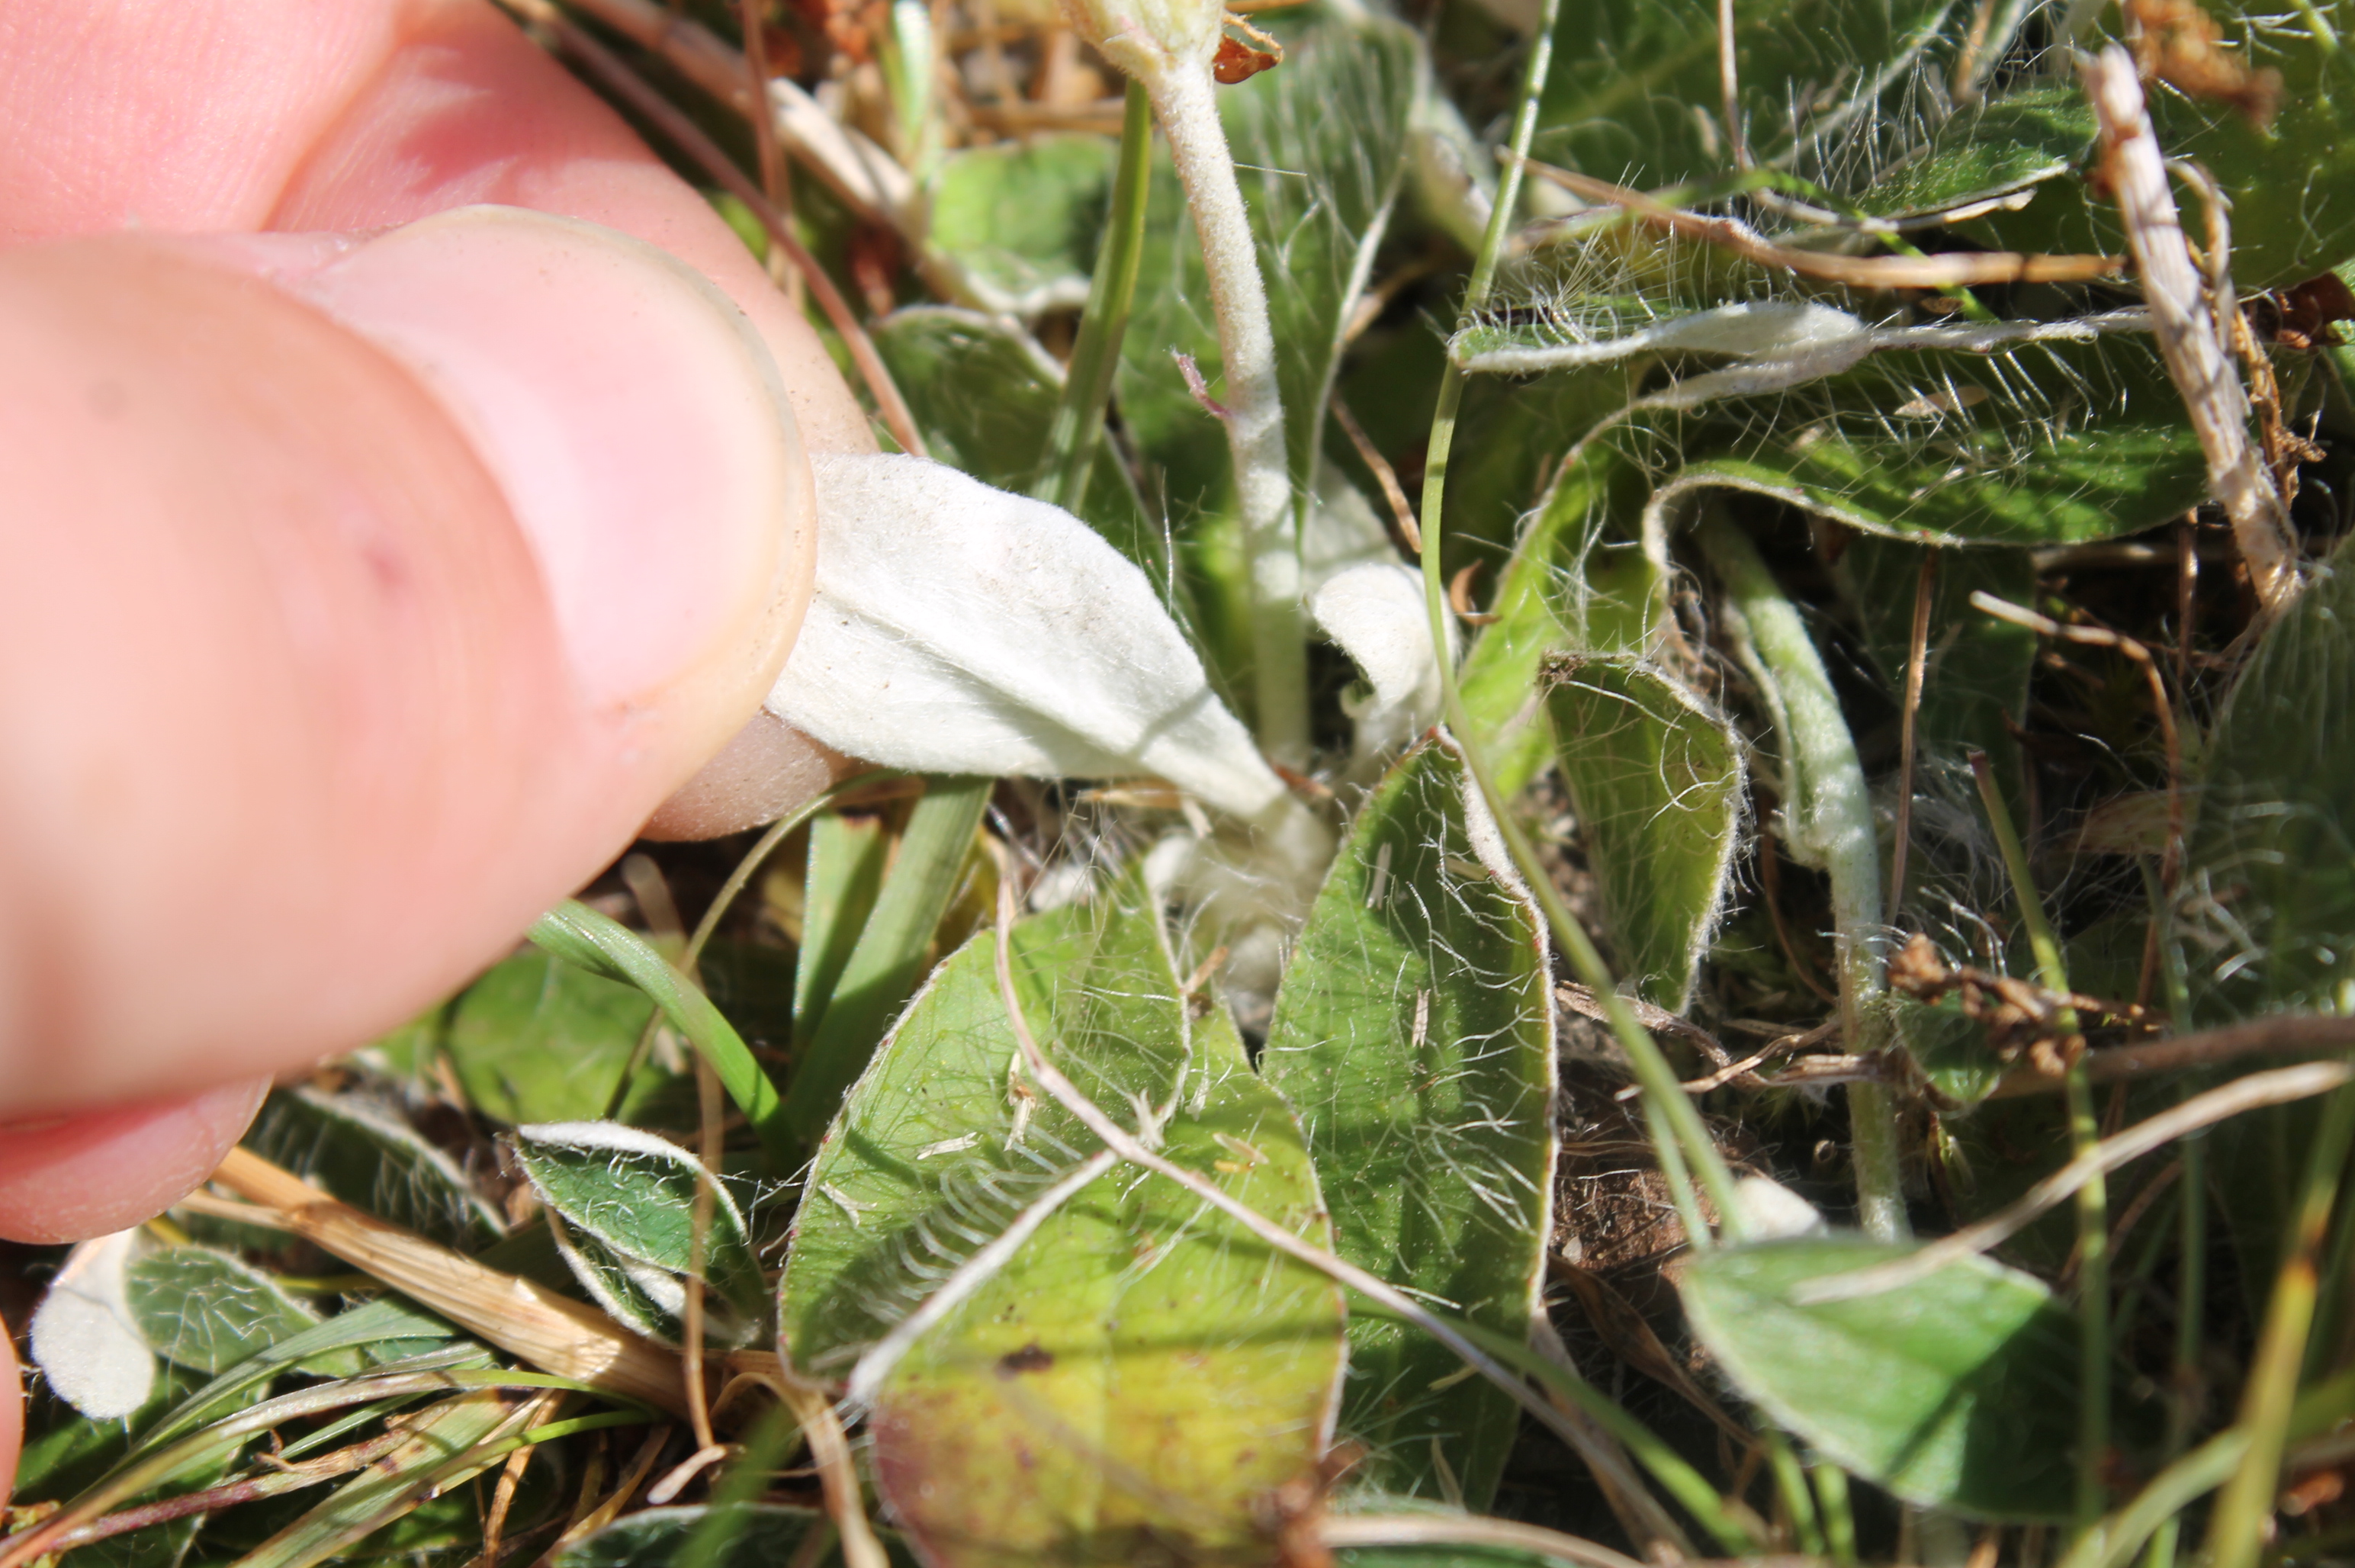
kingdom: Plantae
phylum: Tracheophyta
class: Magnoliopsida
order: Asterales
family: Asteraceae
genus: Pilosella
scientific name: Pilosella officinarum
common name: Håret høgeurt
